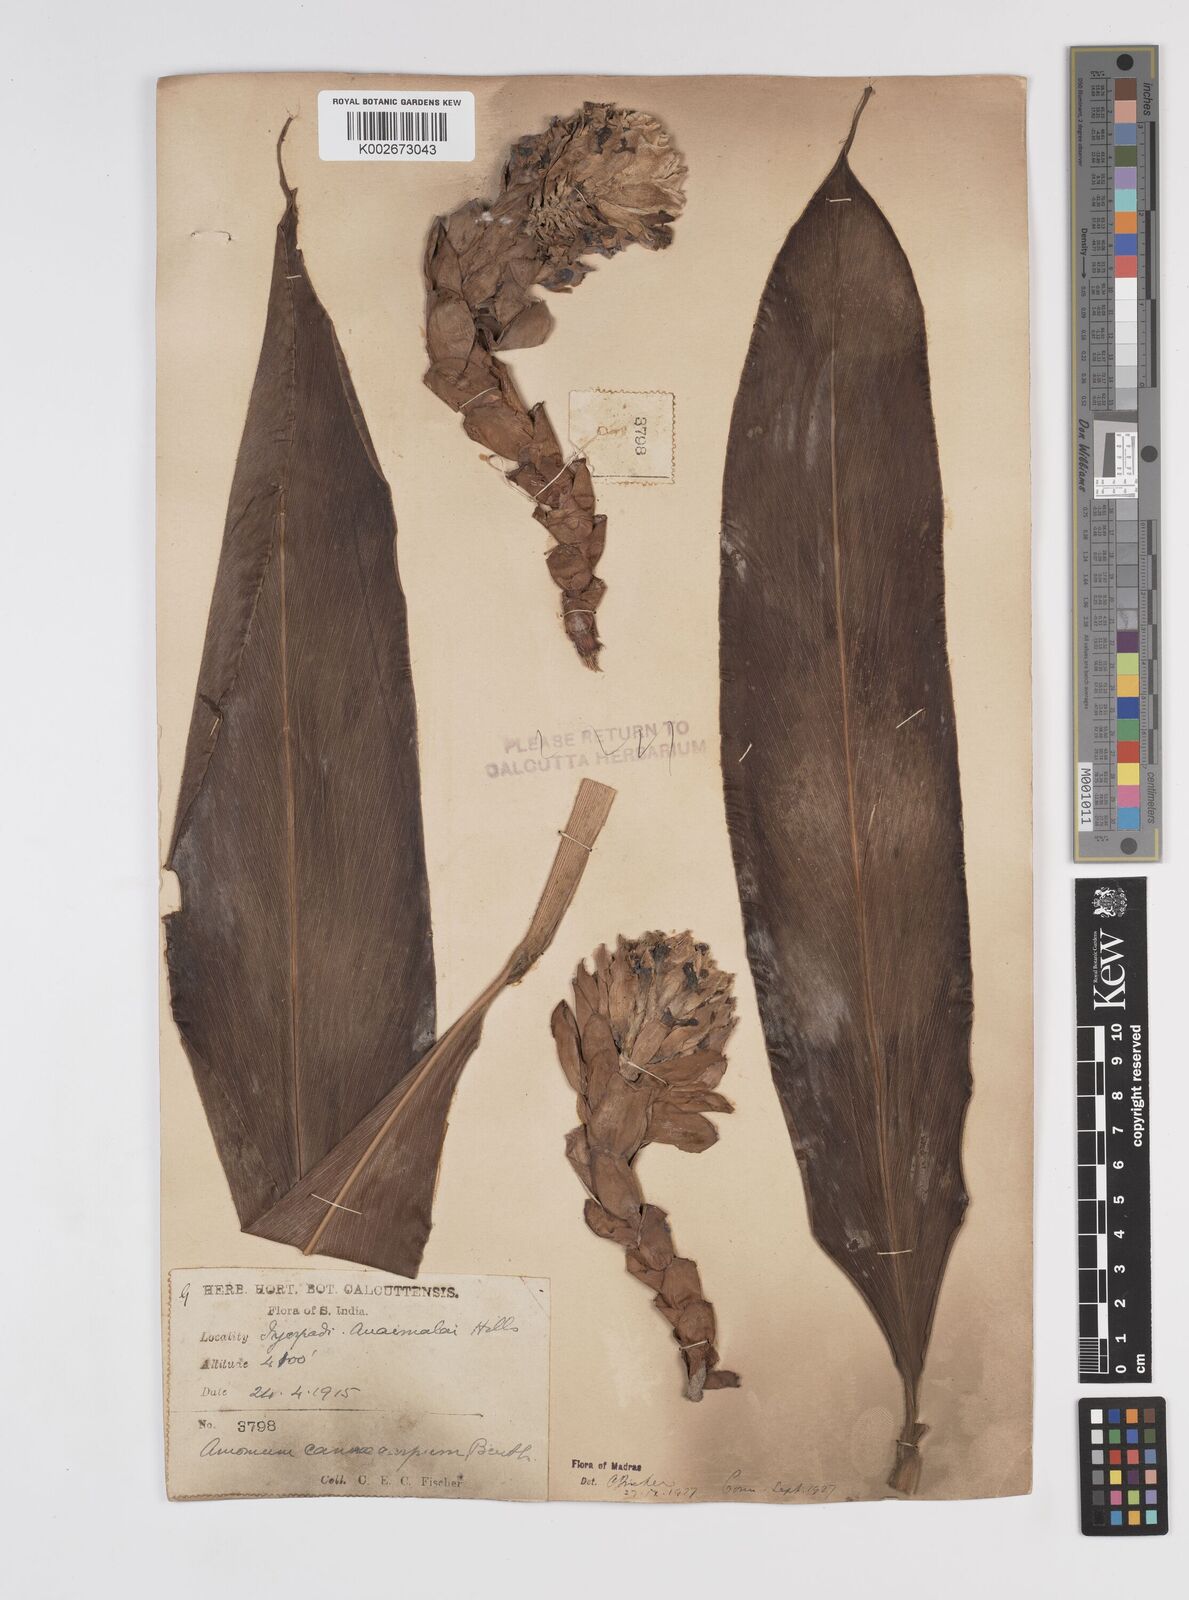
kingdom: Plantae
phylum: Tracheophyta
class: Liliopsida
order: Zingiberales
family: Zingiberaceae
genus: Meistera
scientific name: Meistera cannicarpa
